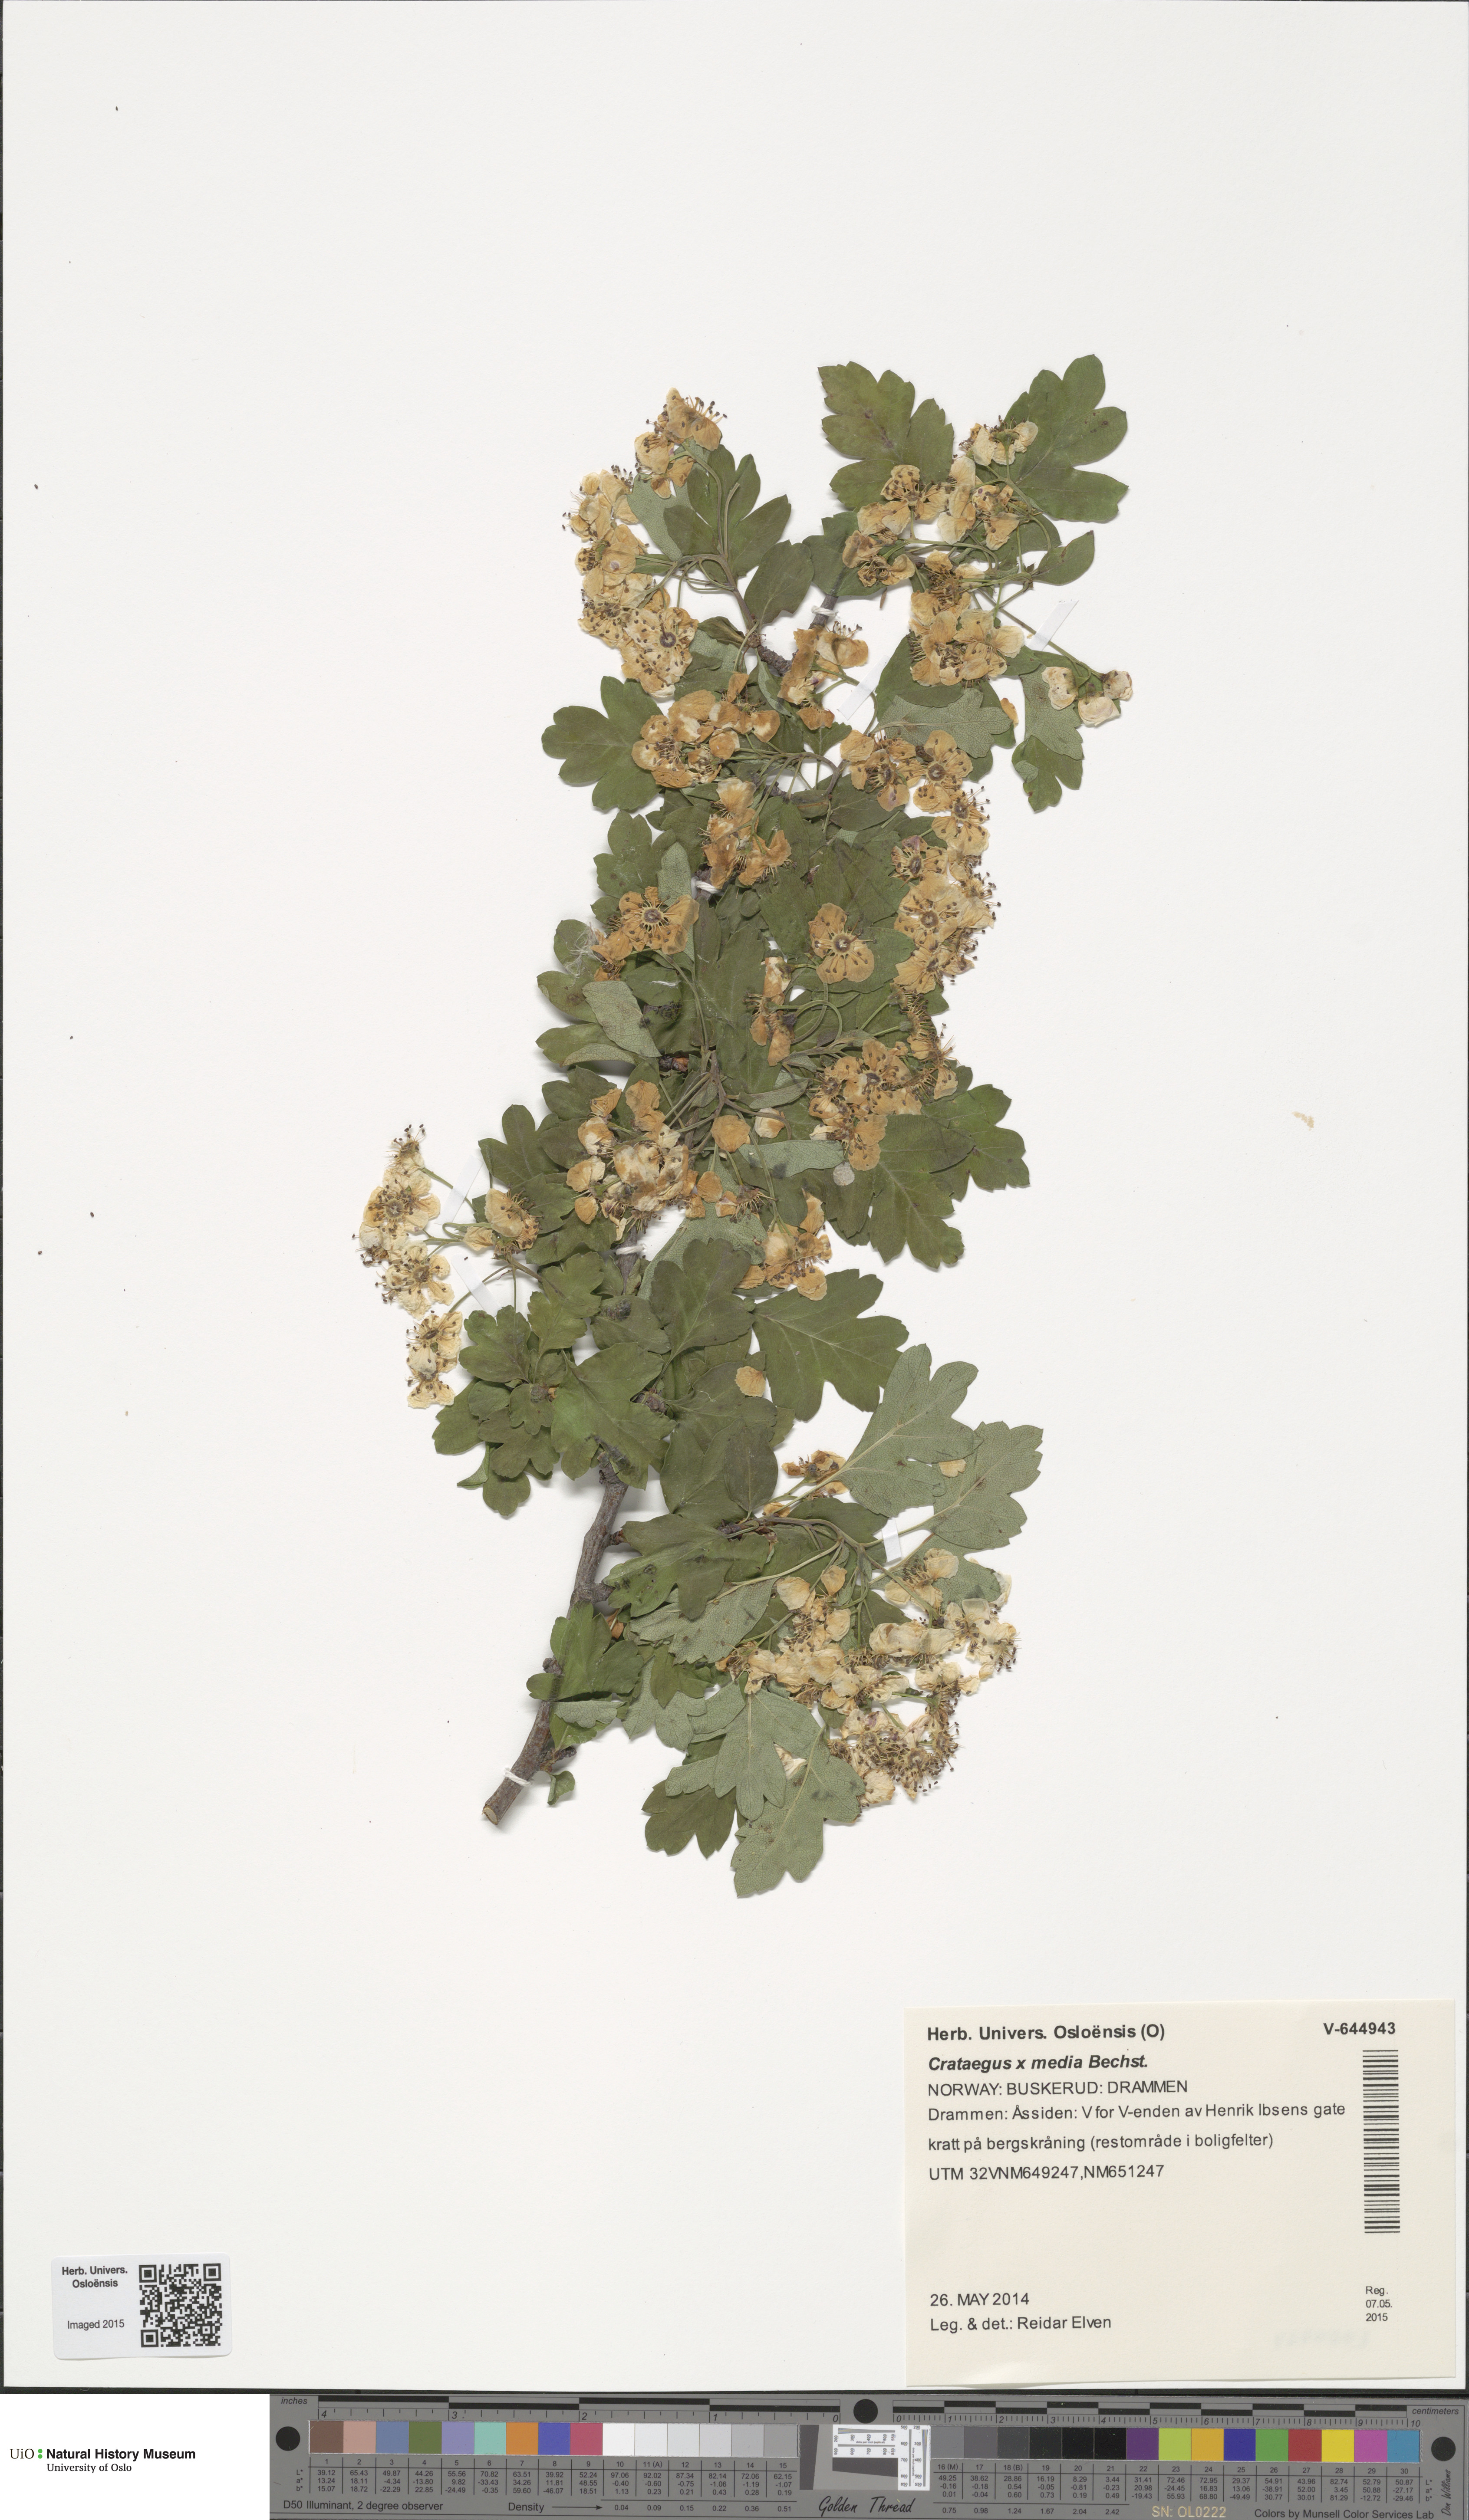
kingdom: Plantae
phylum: Tracheophyta
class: Magnoliopsida
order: Rosales
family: Rosaceae
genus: Crataegus
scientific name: Crataegus media
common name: Intermediate hawthorn
